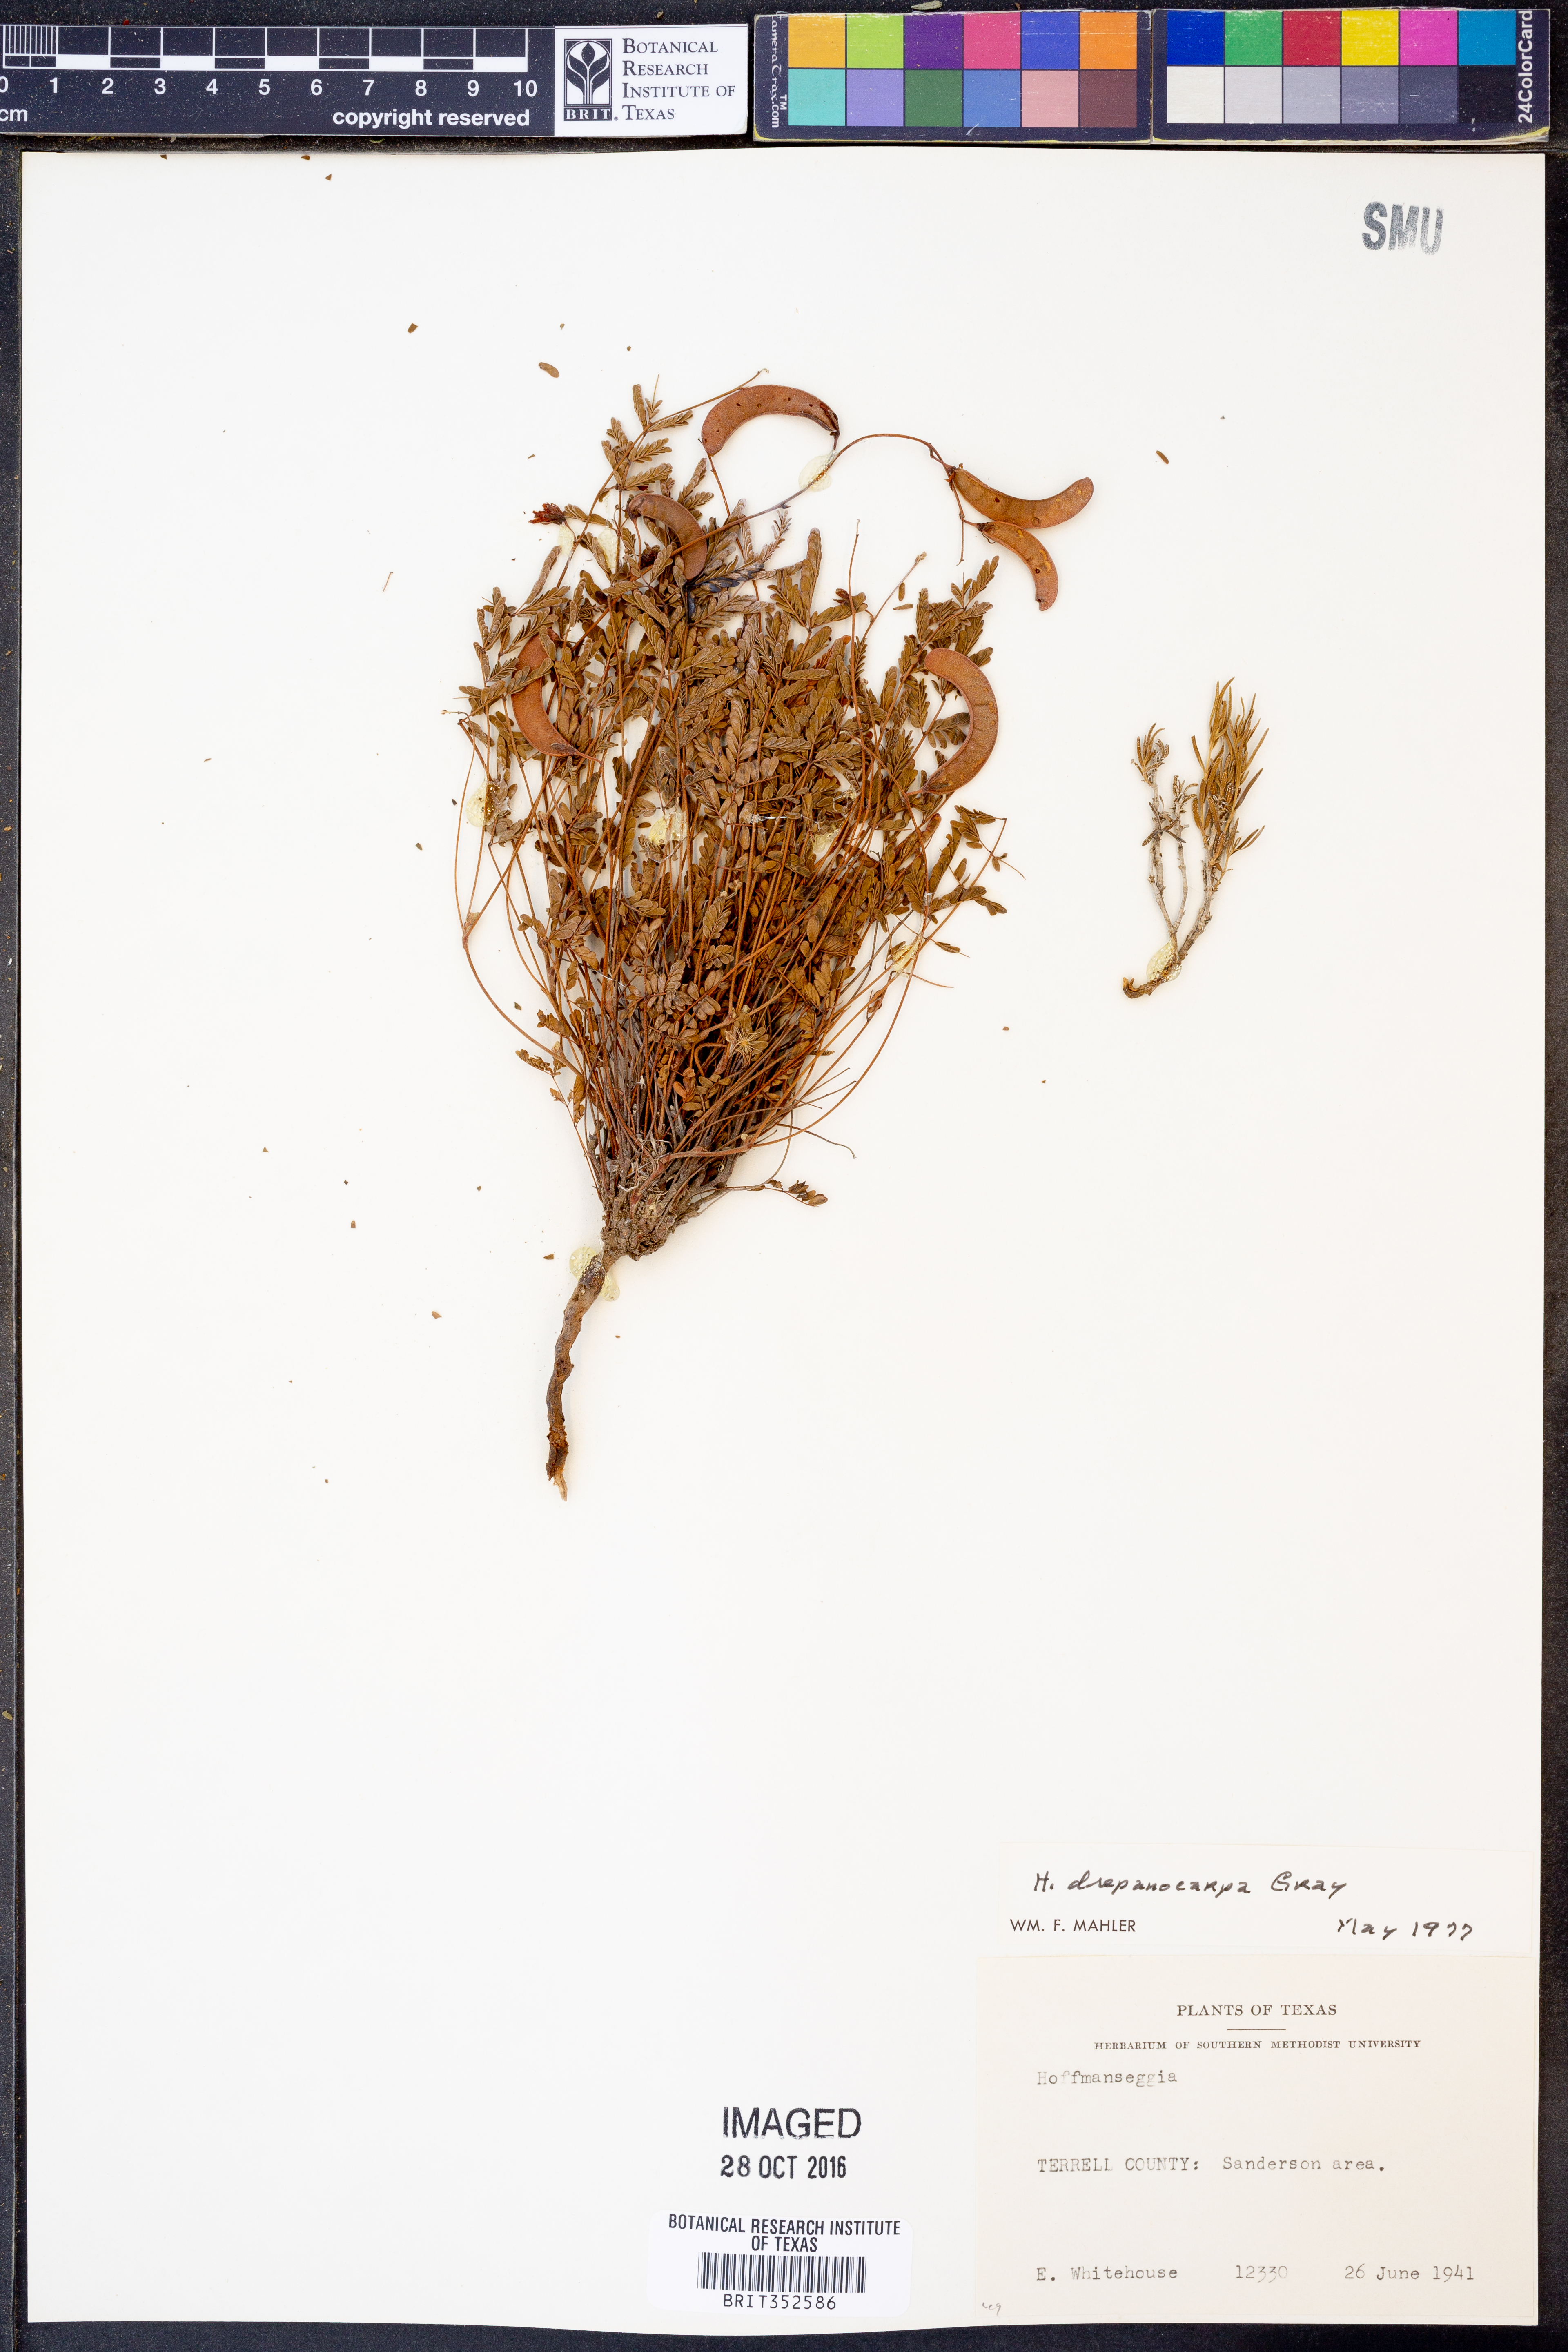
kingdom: Plantae
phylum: Tracheophyta
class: Magnoliopsida
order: Fabales
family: Fabaceae
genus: Hoffmannseggia
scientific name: Hoffmannseggia drepanocarpa
